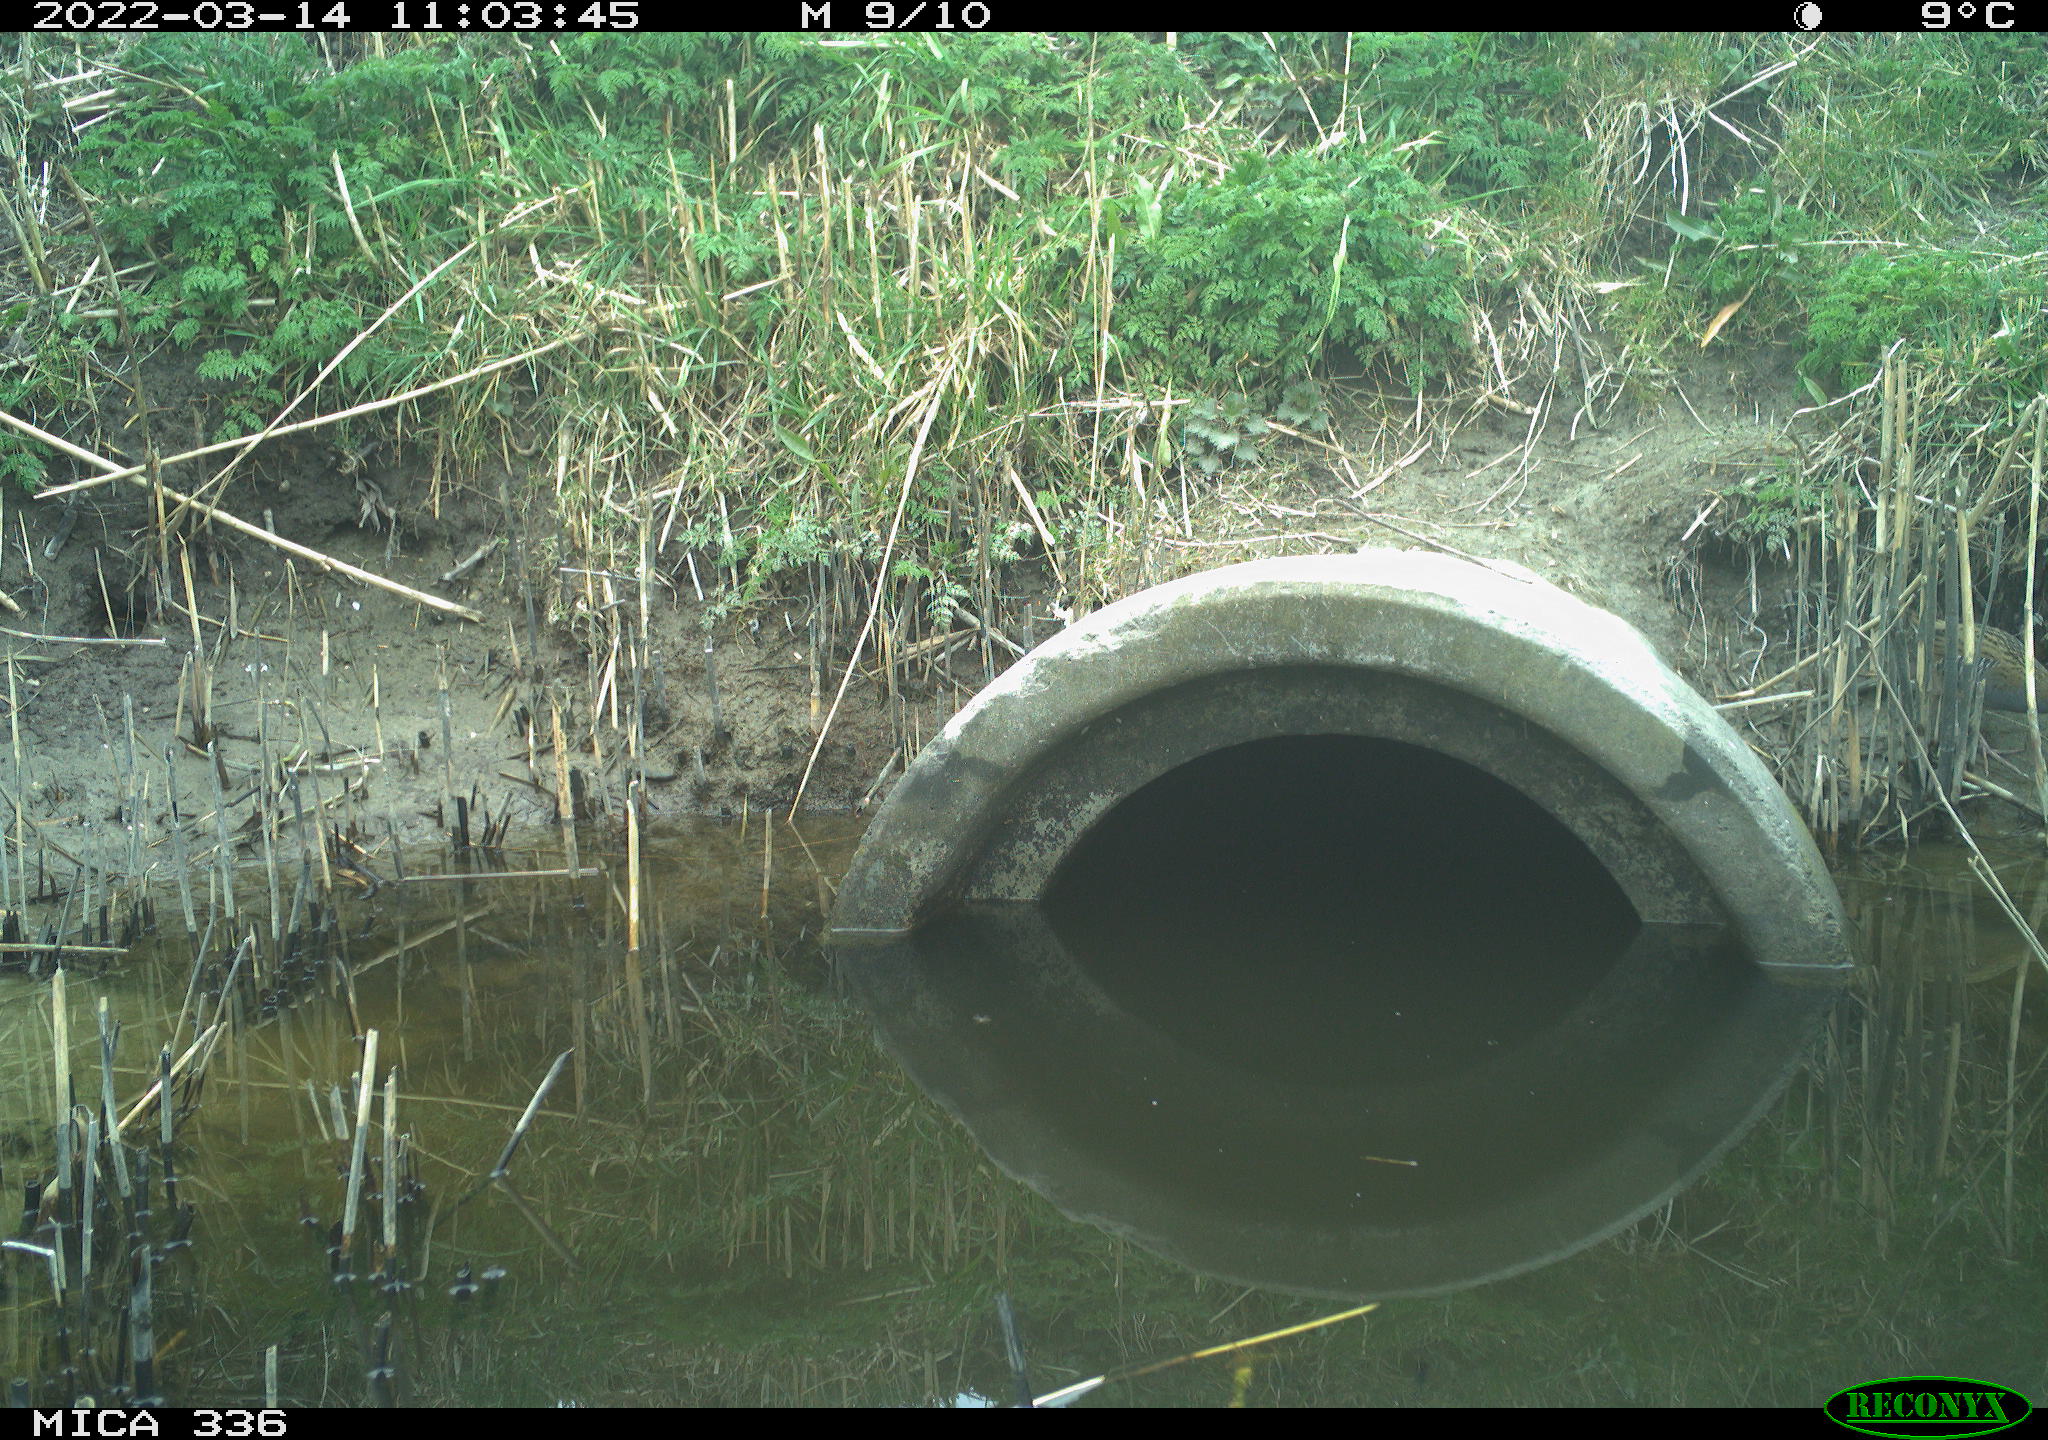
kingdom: Animalia
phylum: Chordata
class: Aves
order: Gruiformes
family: Rallidae
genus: Rallus
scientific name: Rallus aquaticus
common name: Water rail
